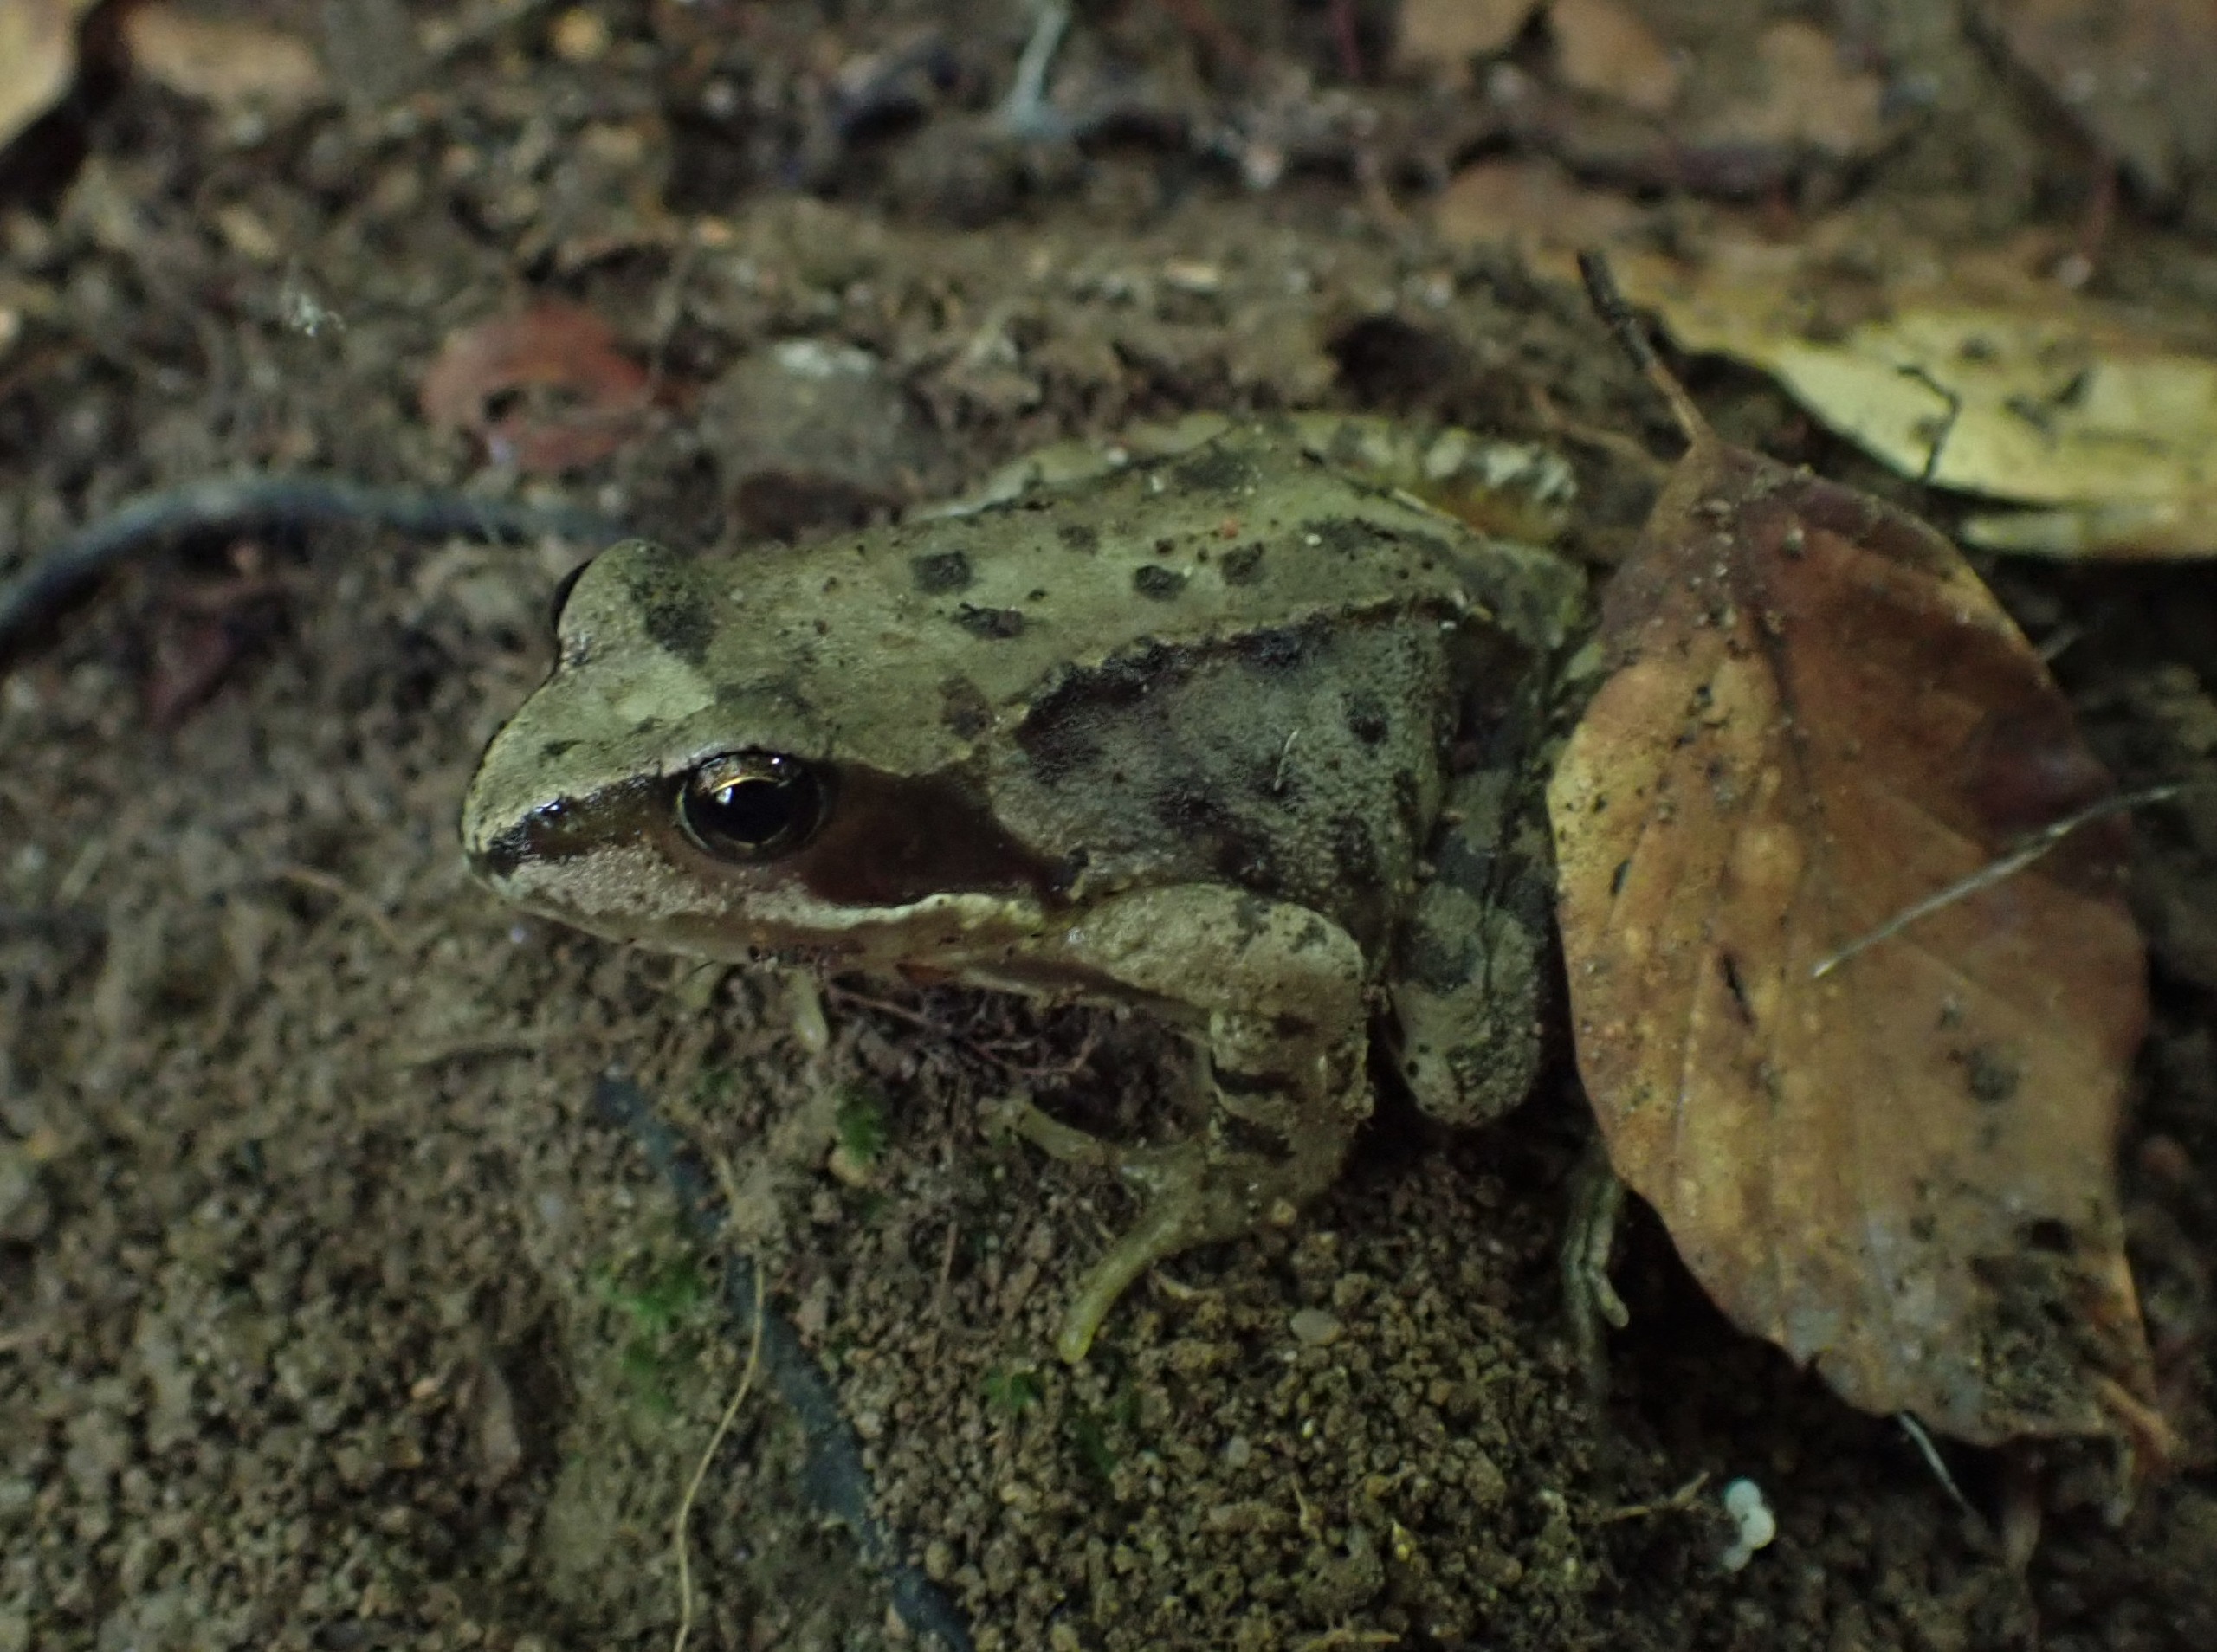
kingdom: Animalia
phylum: Chordata
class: Amphibia
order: Anura
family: Ranidae
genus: Rana
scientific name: Rana temporaria
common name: Butsnudet frø
